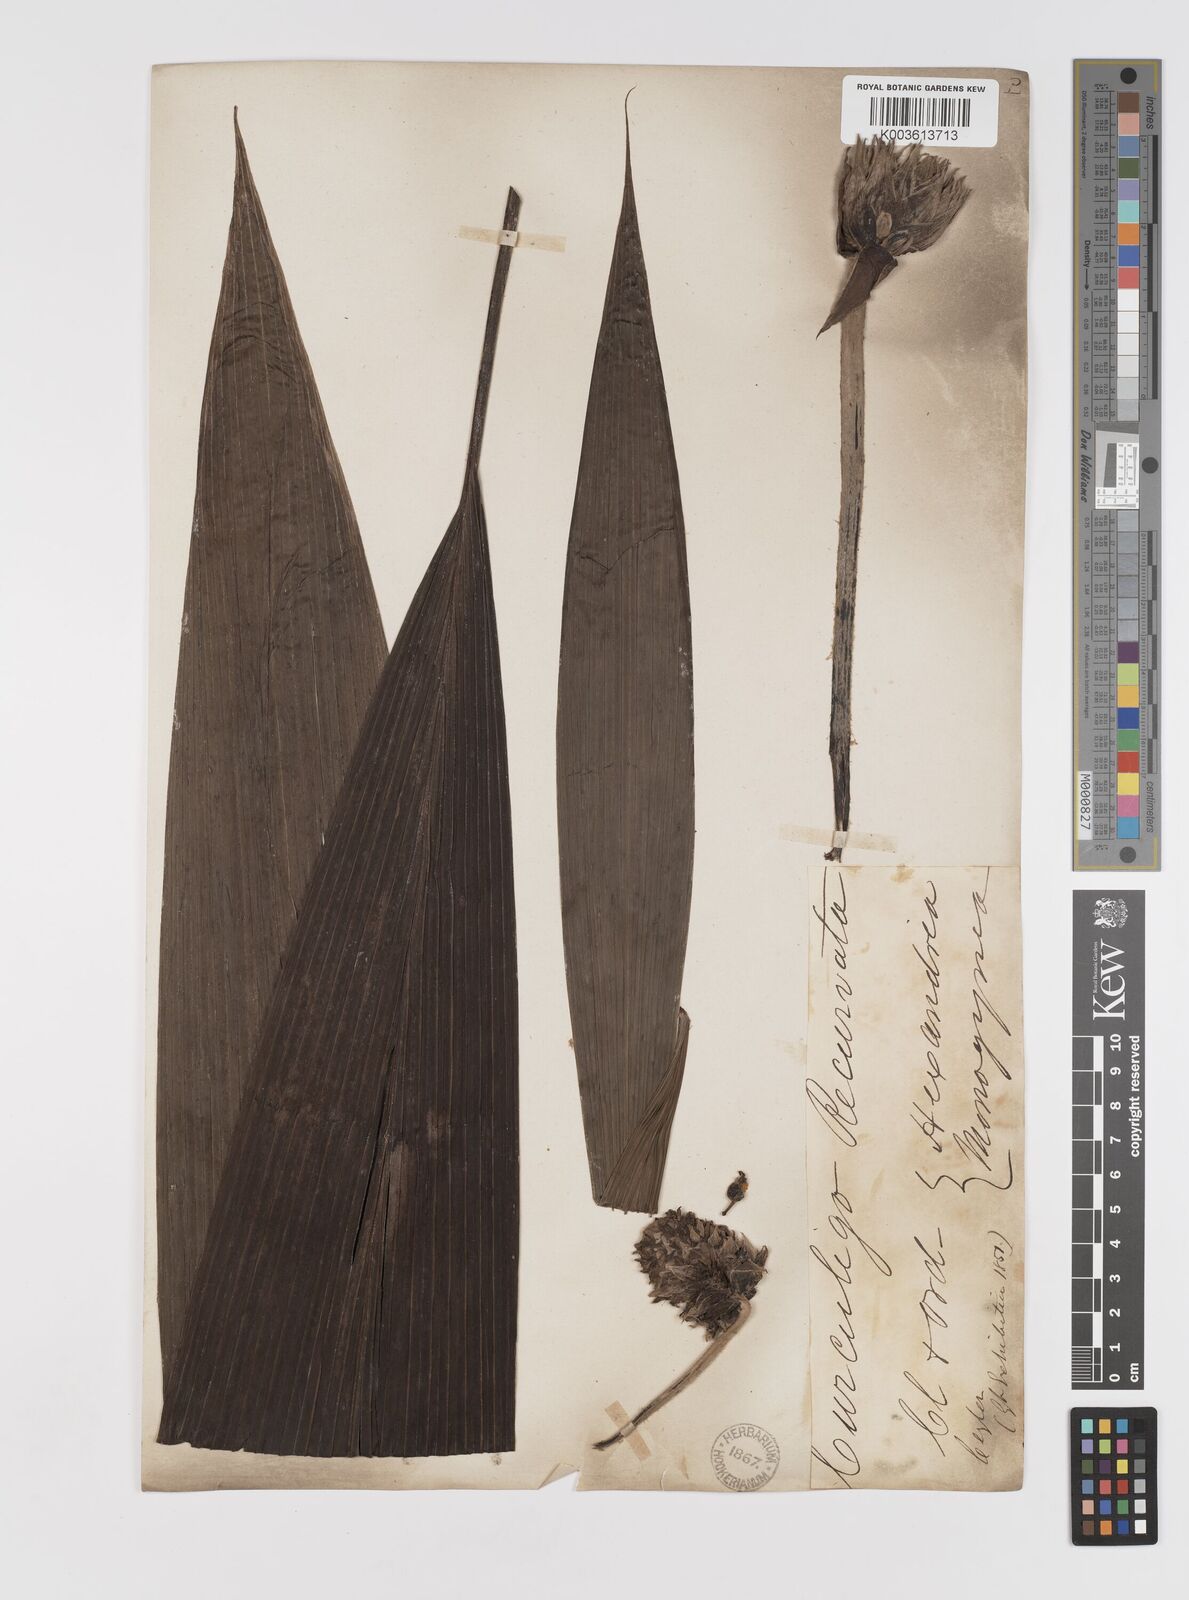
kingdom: Plantae
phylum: Tracheophyta
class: Liliopsida
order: Asparagales
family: Hypoxidaceae
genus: Curculigo
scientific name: Curculigo capitulata
